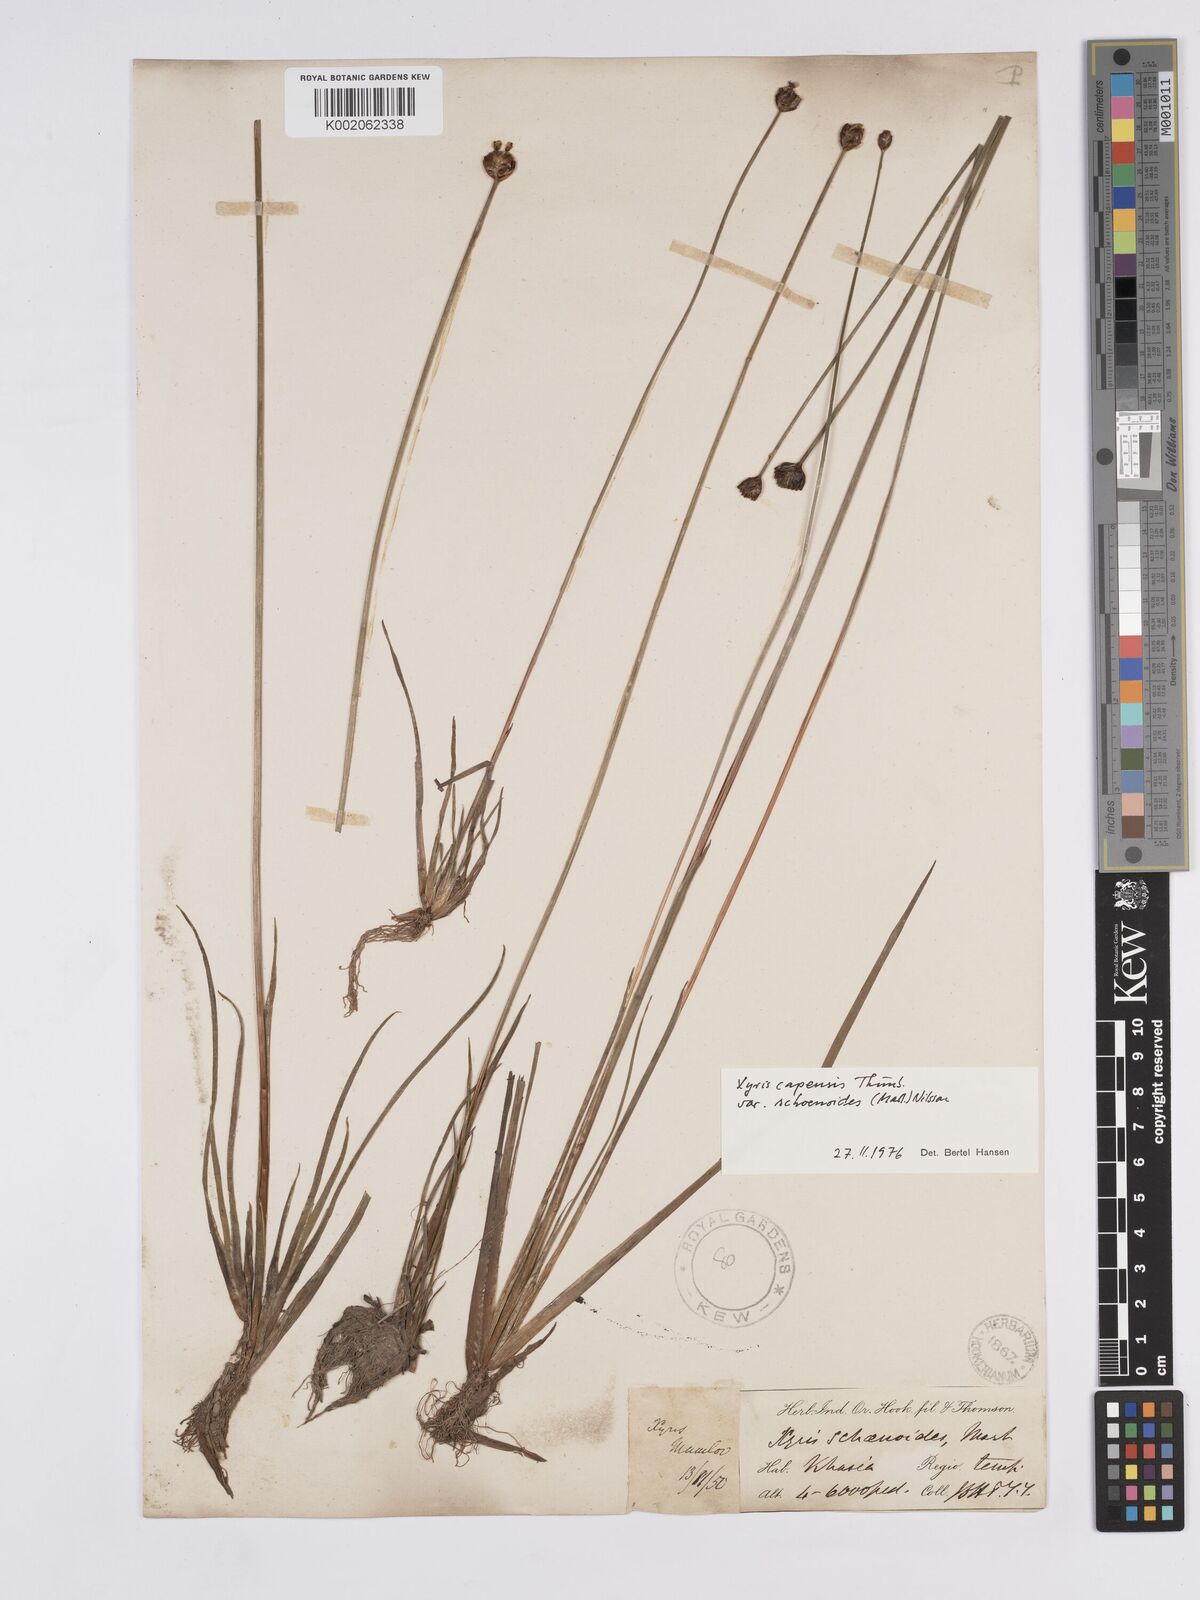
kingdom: Plantae
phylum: Tracheophyta
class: Liliopsida
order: Poales
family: Xyridaceae
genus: Xyris
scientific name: Xyris capensis
